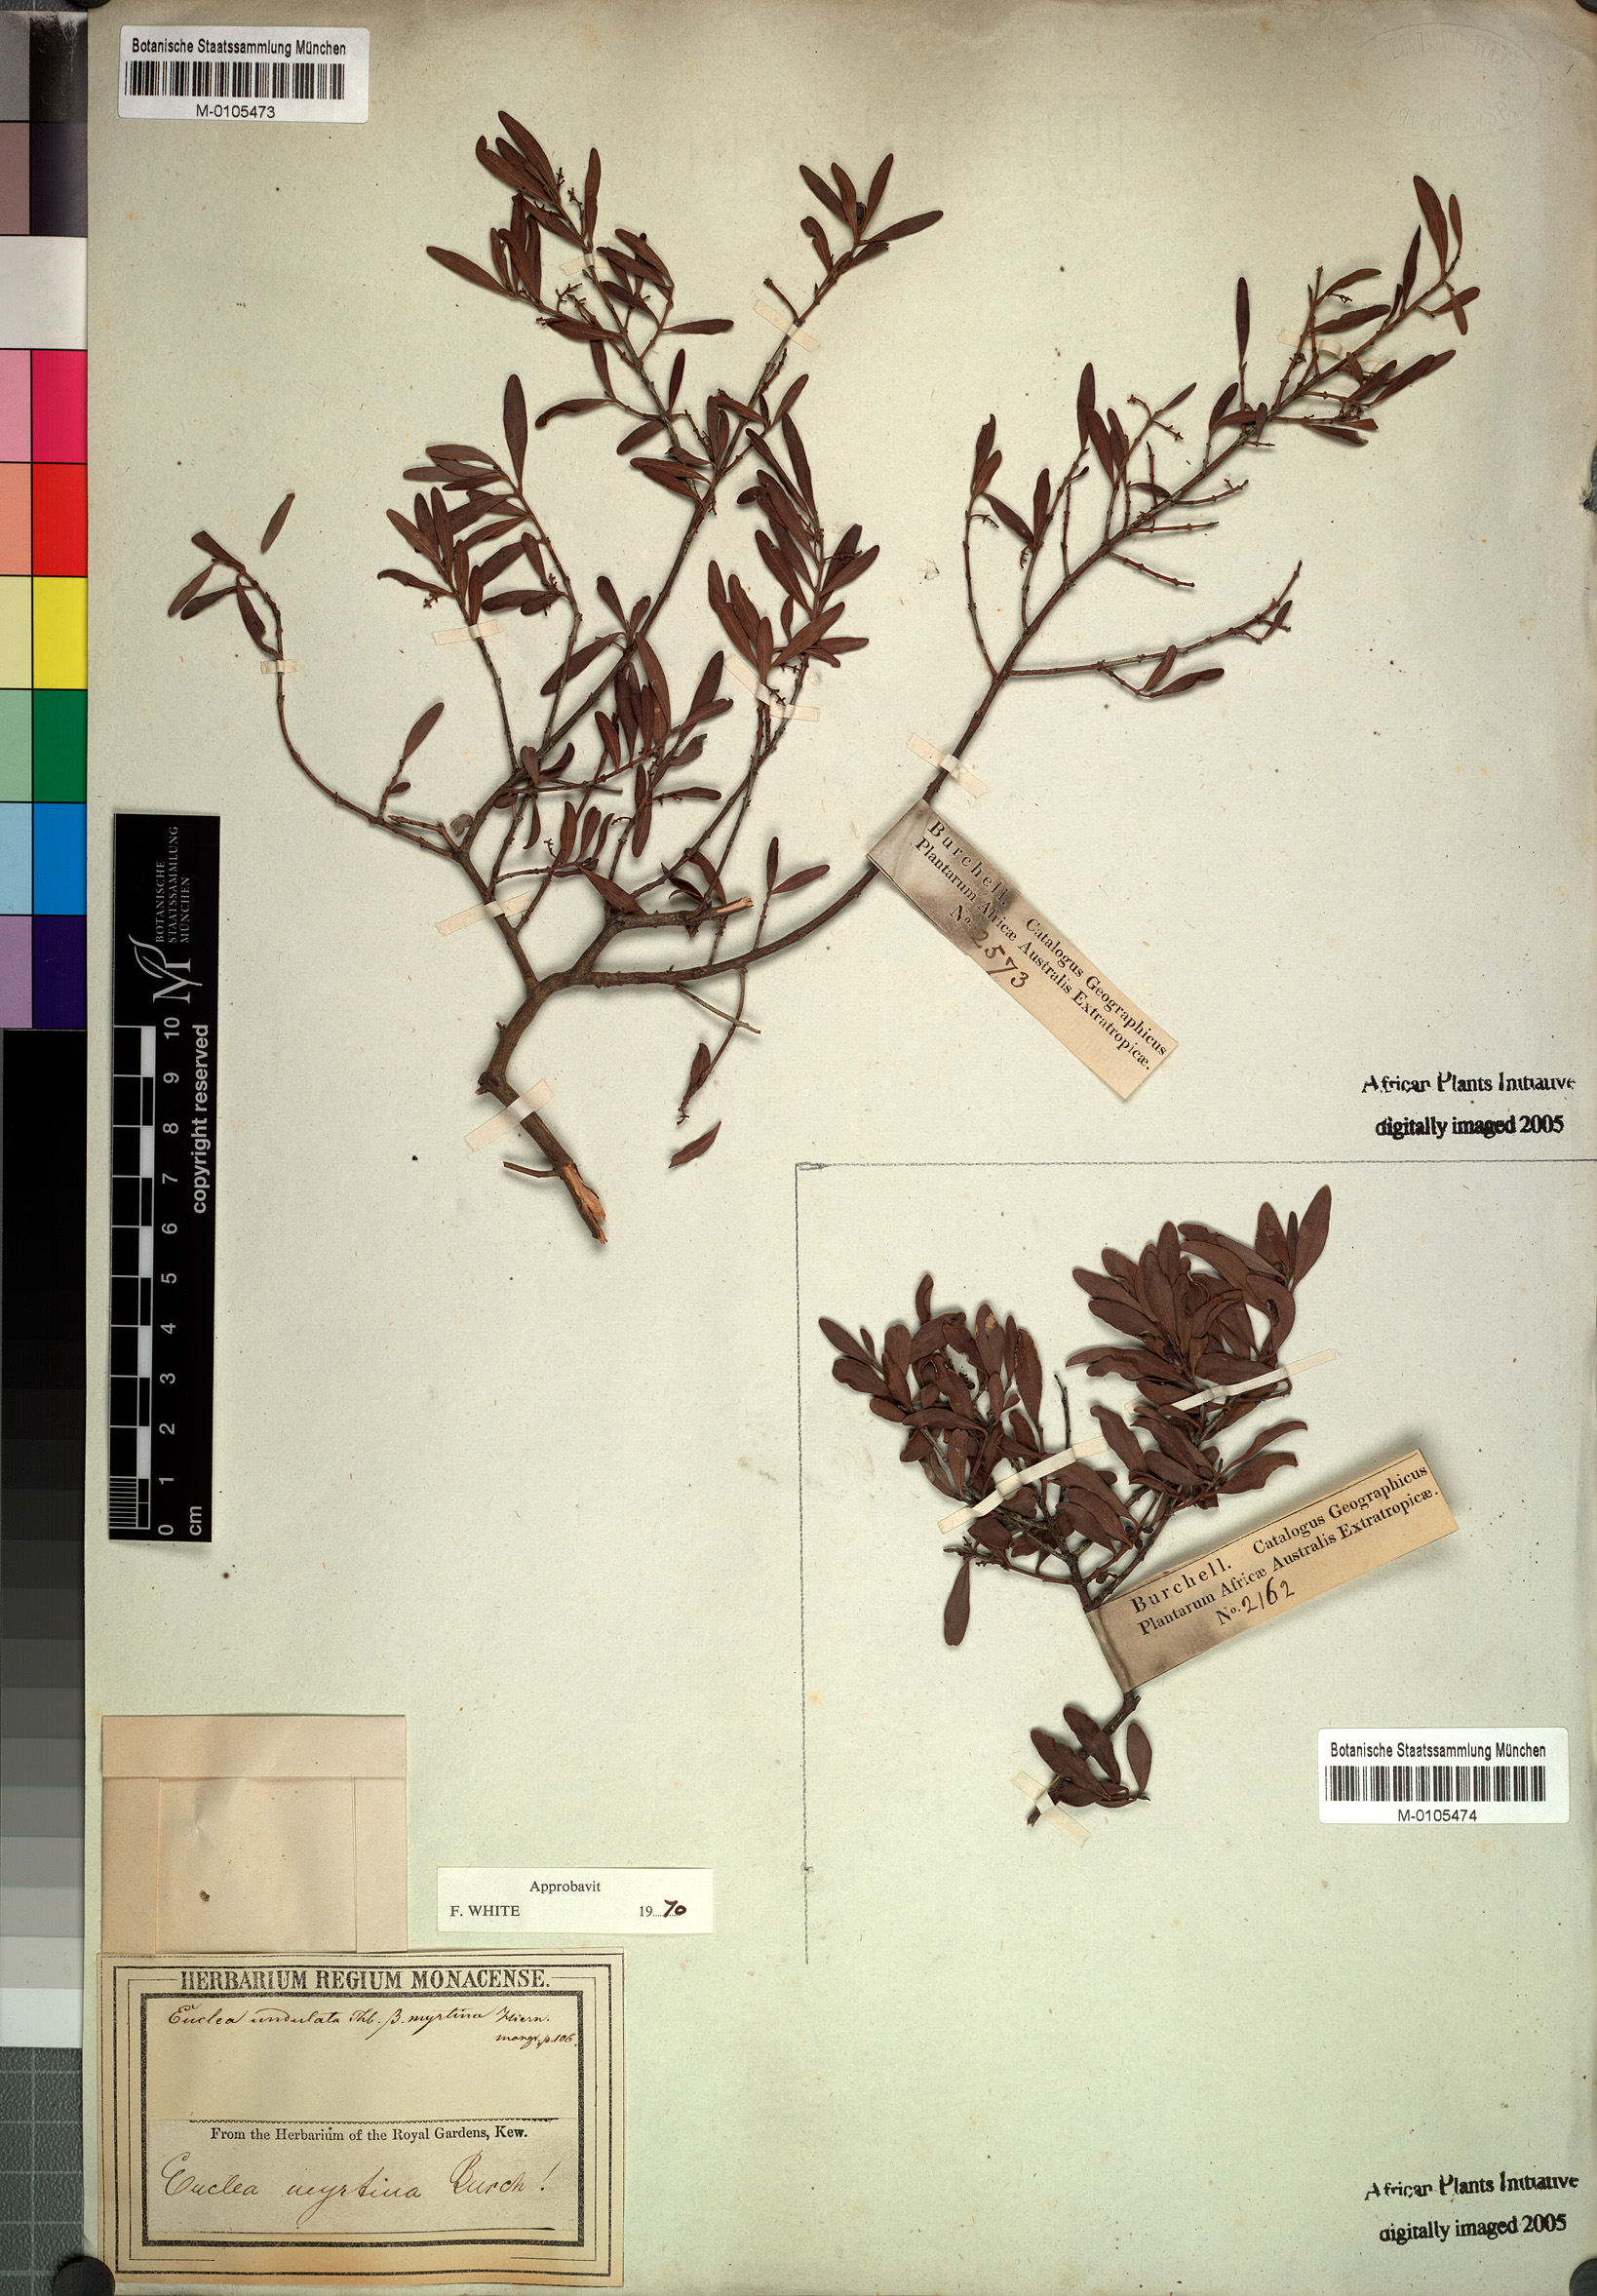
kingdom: Plantae
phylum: Tracheophyta
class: Magnoliopsida
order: Ericales
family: Ebenaceae
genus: Euclea
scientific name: Euclea undulata
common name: Small-leaved guarri
